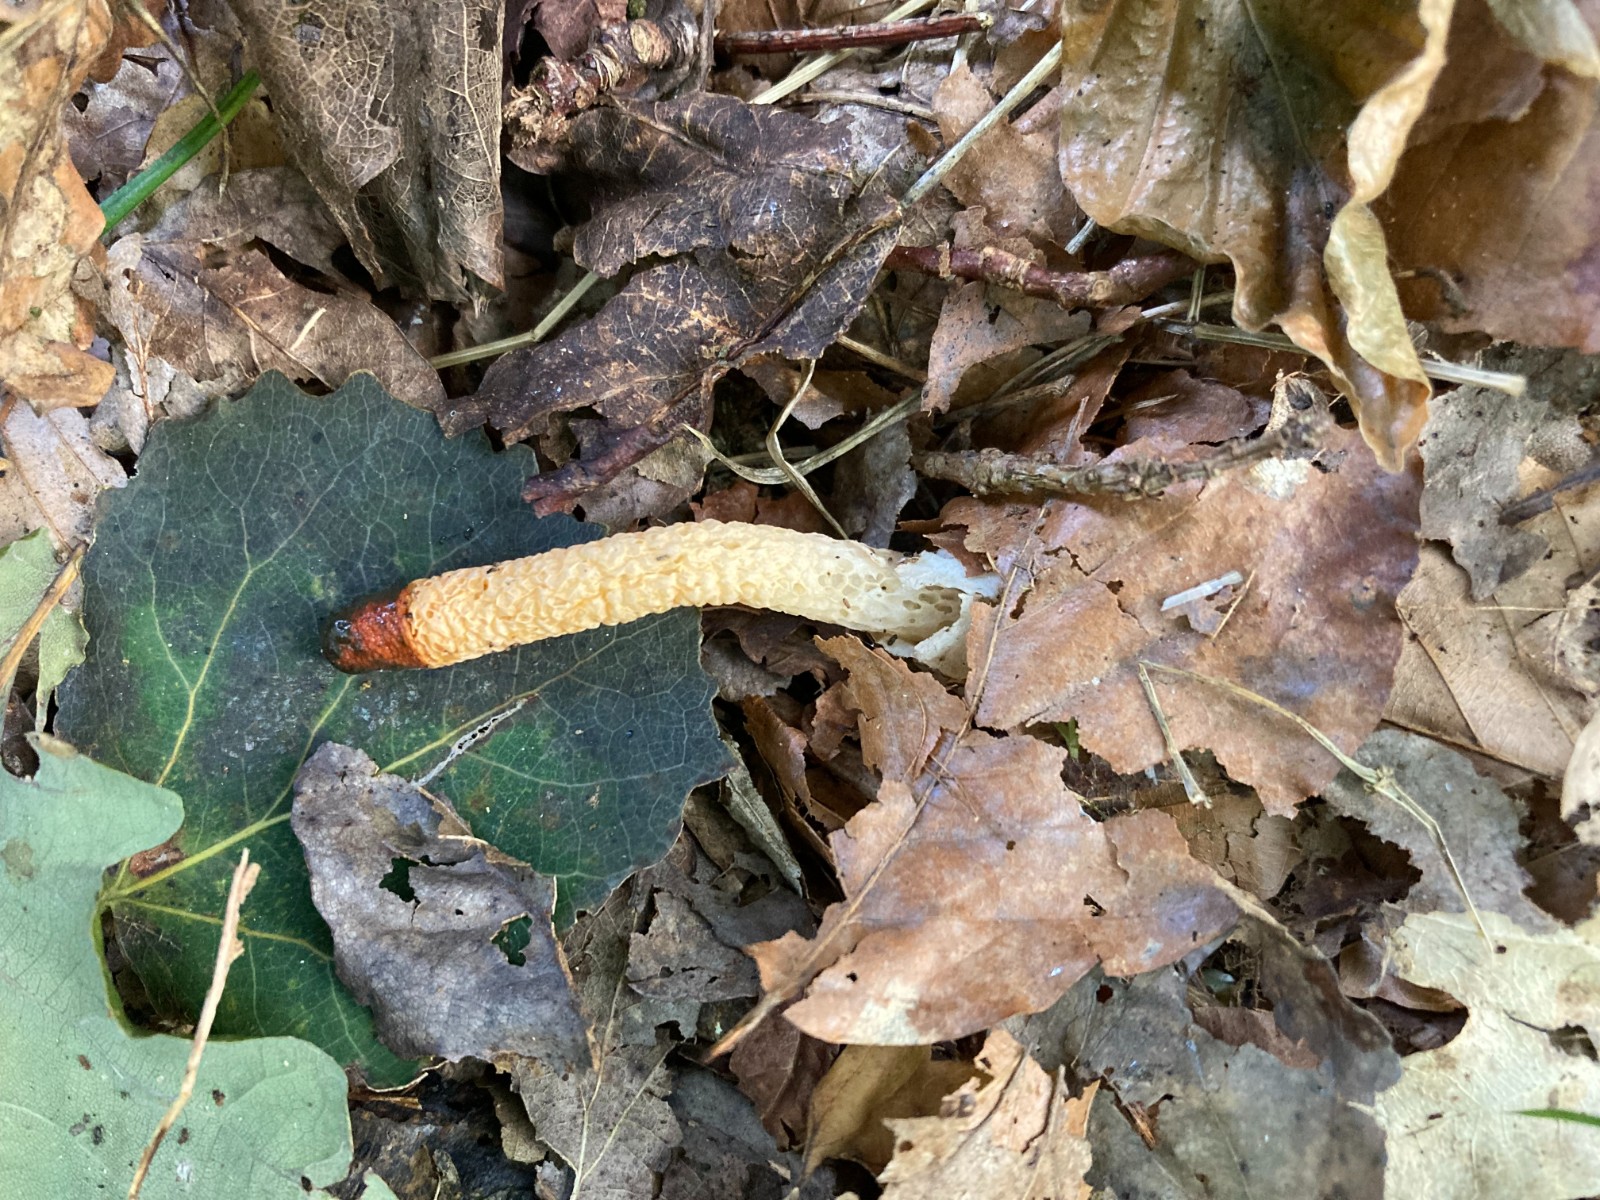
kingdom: Fungi
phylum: Basidiomycota
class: Agaricomycetes
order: Phallales
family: Phallaceae
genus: Mutinus
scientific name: Mutinus caninus
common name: hunde-stinksvamp
